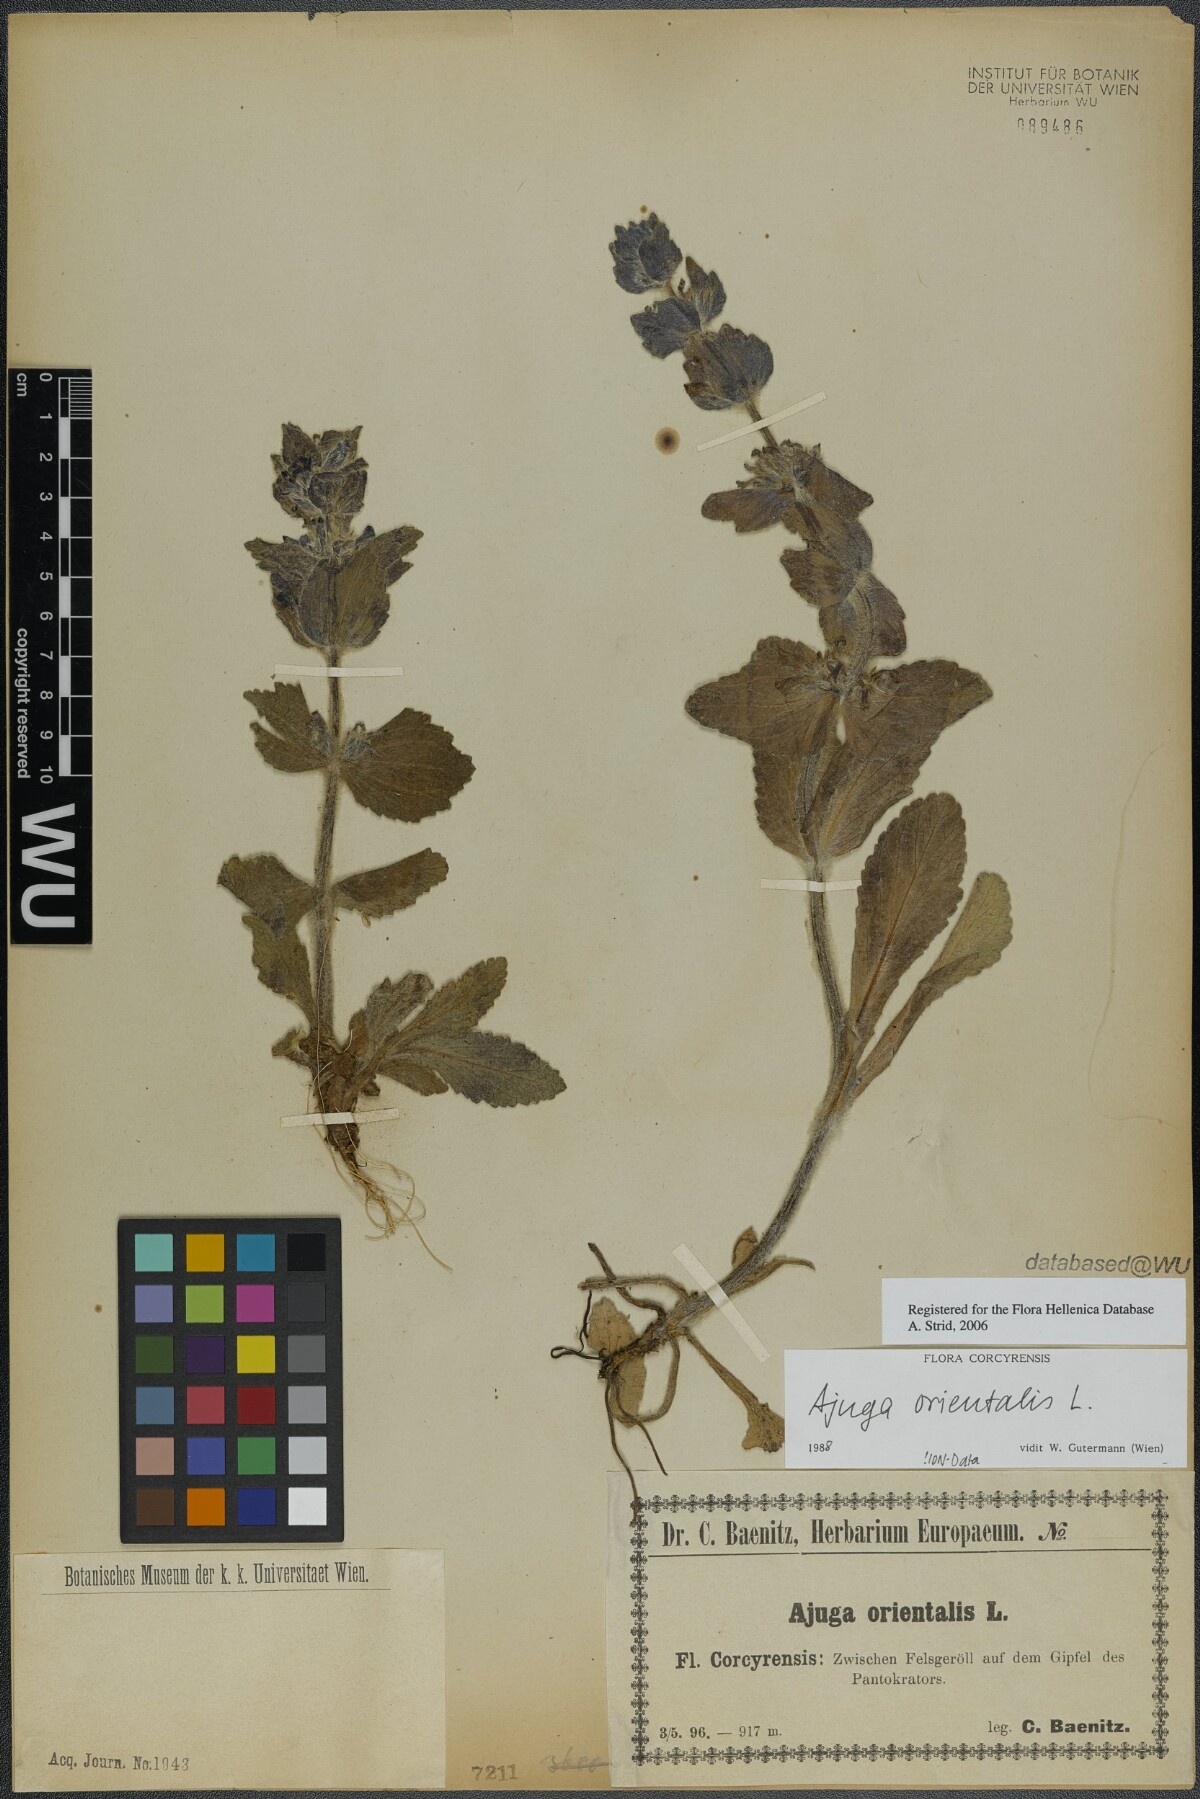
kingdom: Plantae
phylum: Tracheophyta
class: Magnoliopsida
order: Lamiales
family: Lamiaceae
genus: Ajuga
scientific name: Ajuga orientalis
